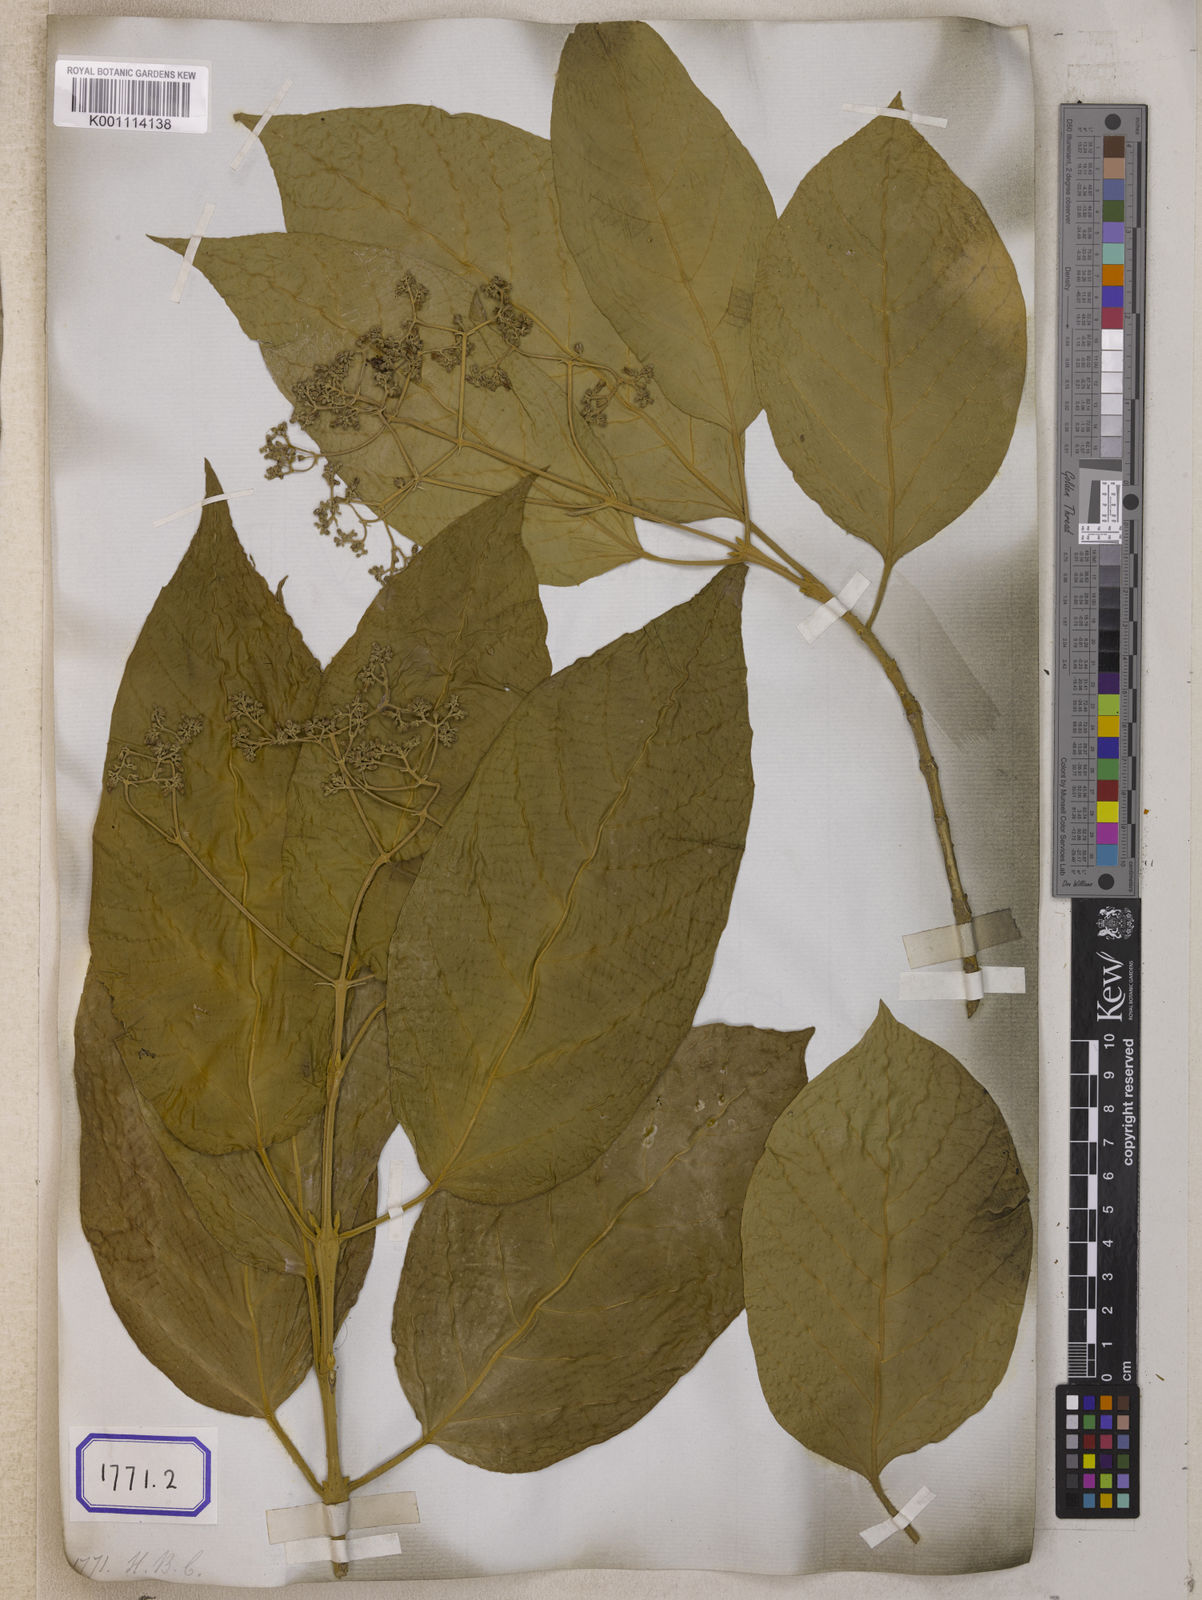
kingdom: Plantae
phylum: Tracheophyta
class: Magnoliopsida
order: Lamiales
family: Lamiaceae
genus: Premna
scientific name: Premna
